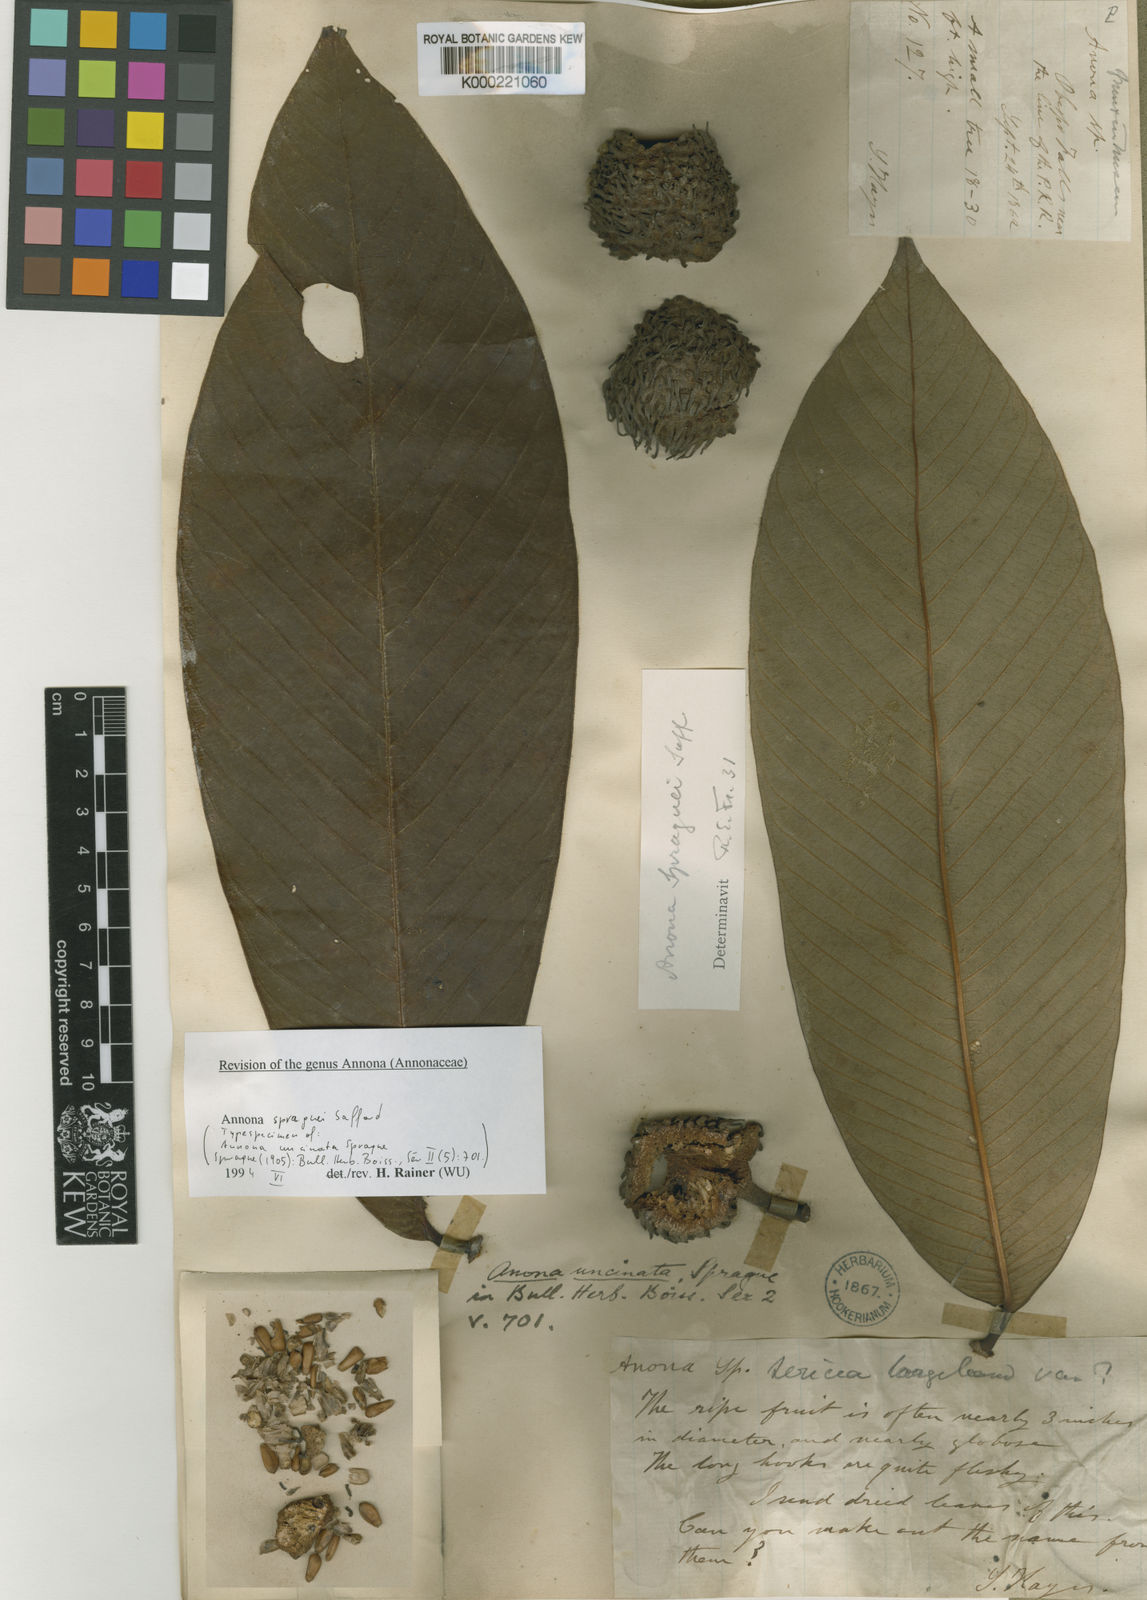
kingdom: Plantae
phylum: Tracheophyta
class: Magnoliopsida
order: Magnoliales
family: Annonaceae
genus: Annona
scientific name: Annona spraguei
